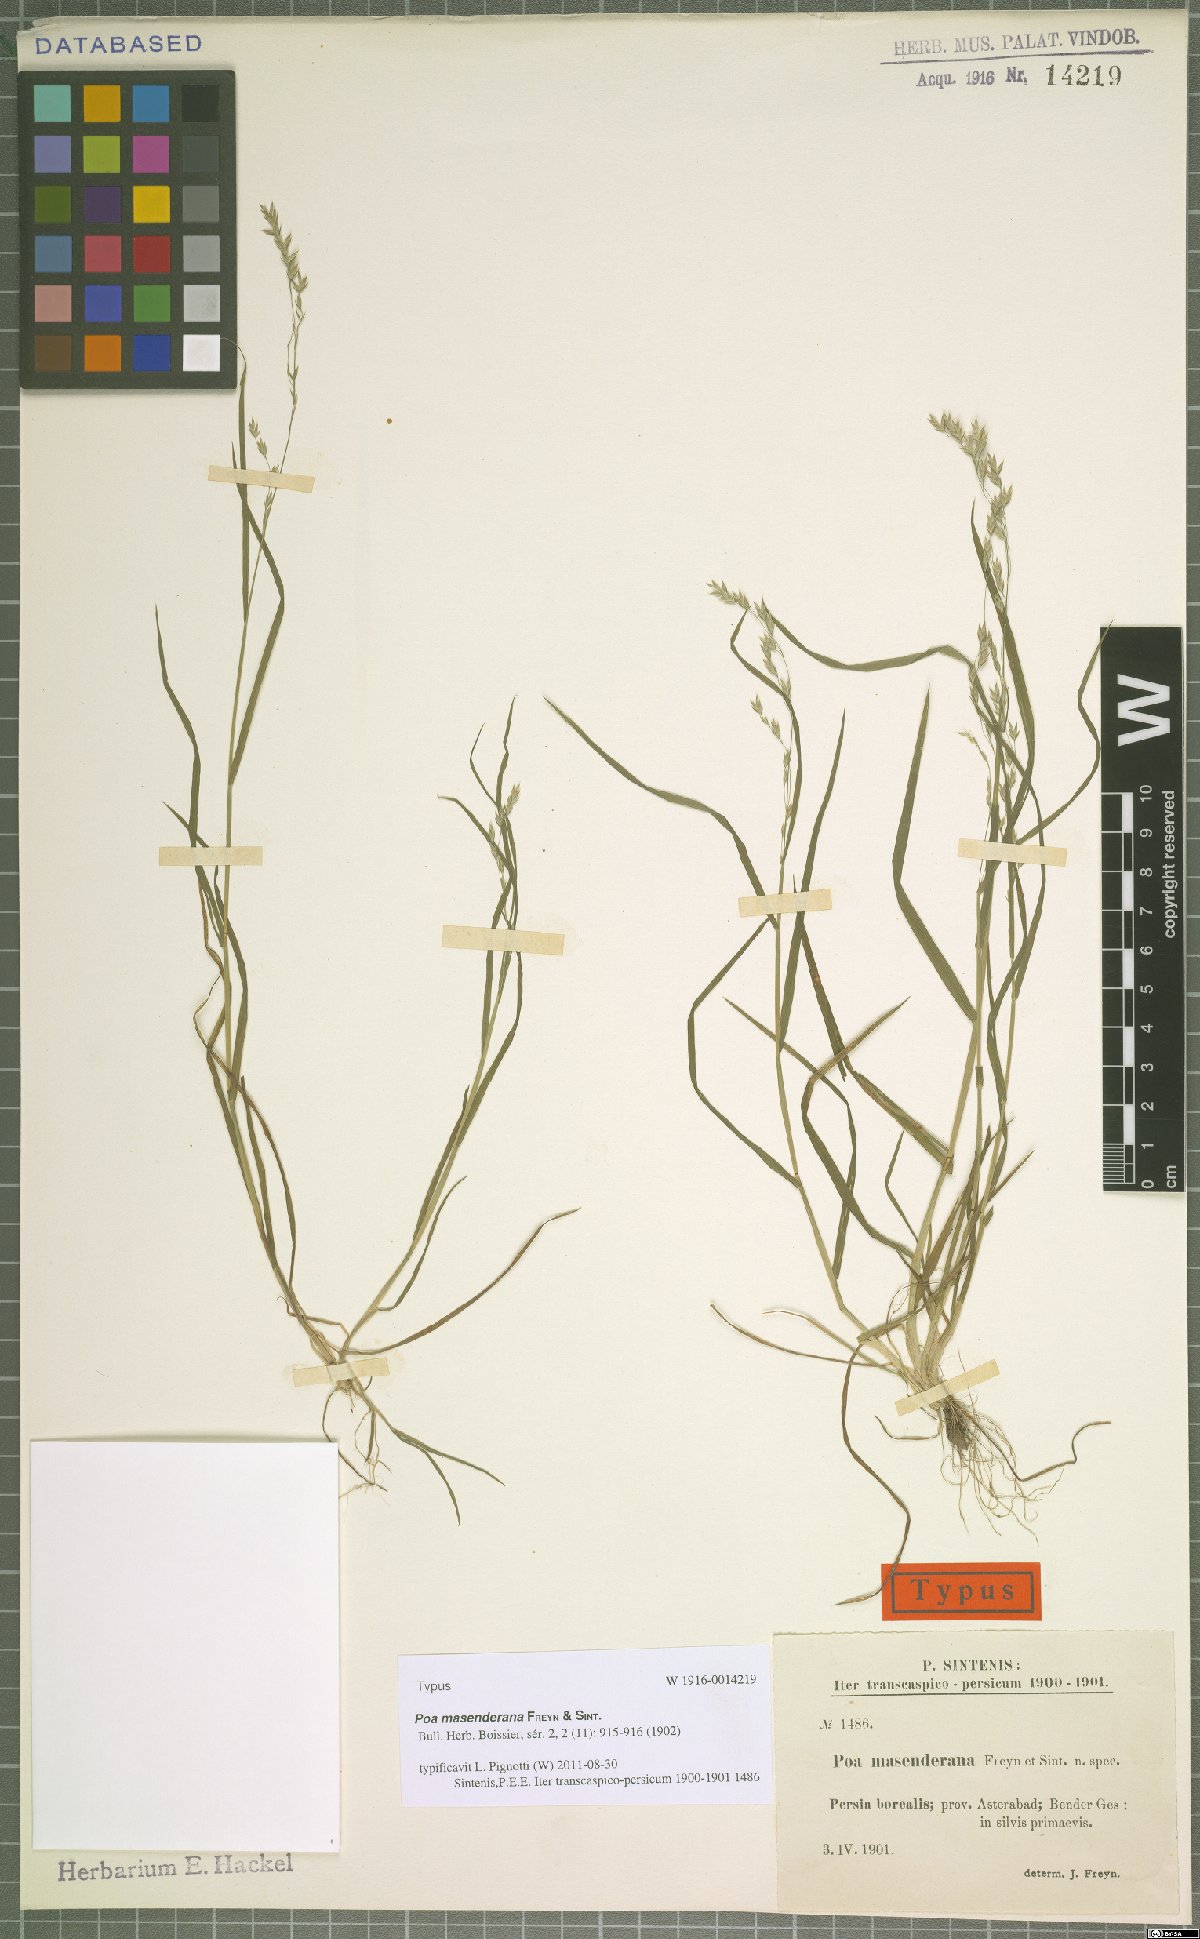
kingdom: Plantae
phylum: Tracheophyta
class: Liliopsida
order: Poales
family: Poaceae
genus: Poa
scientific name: Poa masenderana
